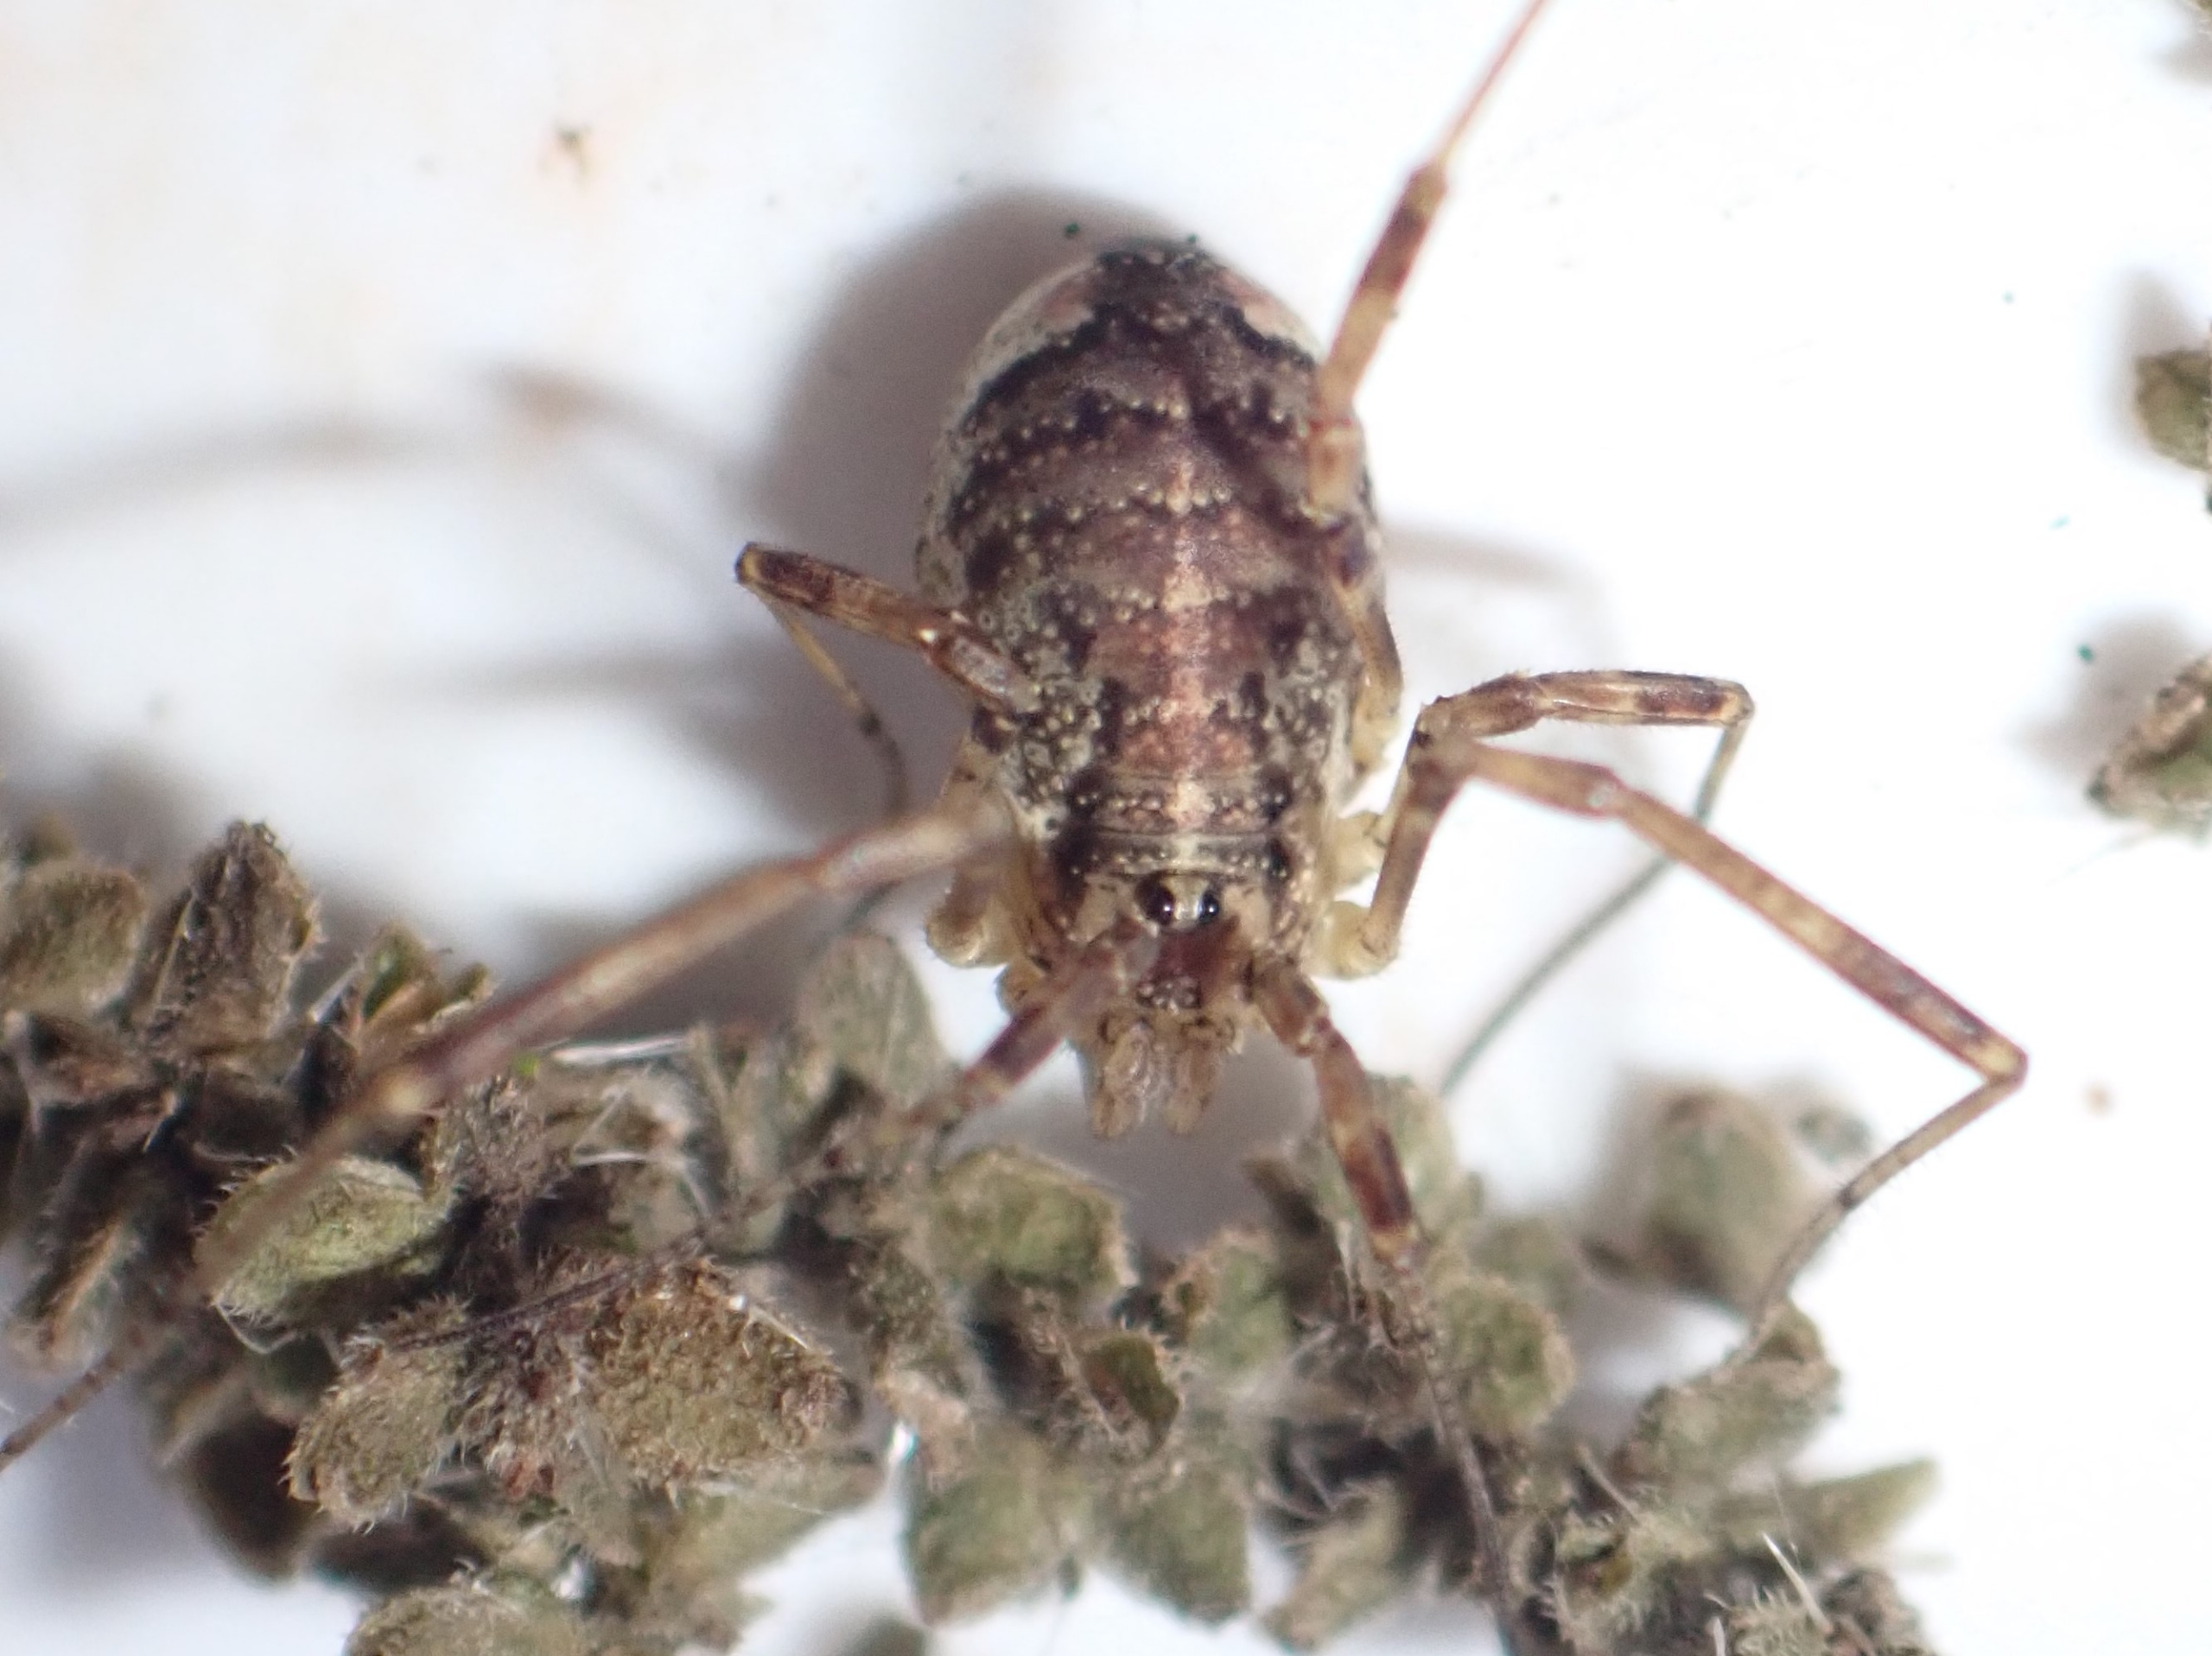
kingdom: Animalia
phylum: Arthropoda
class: Arachnida
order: Opiliones
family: Phalangiidae
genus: Paroligolophus
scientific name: Paroligolophus agrestis
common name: Hedemejer
